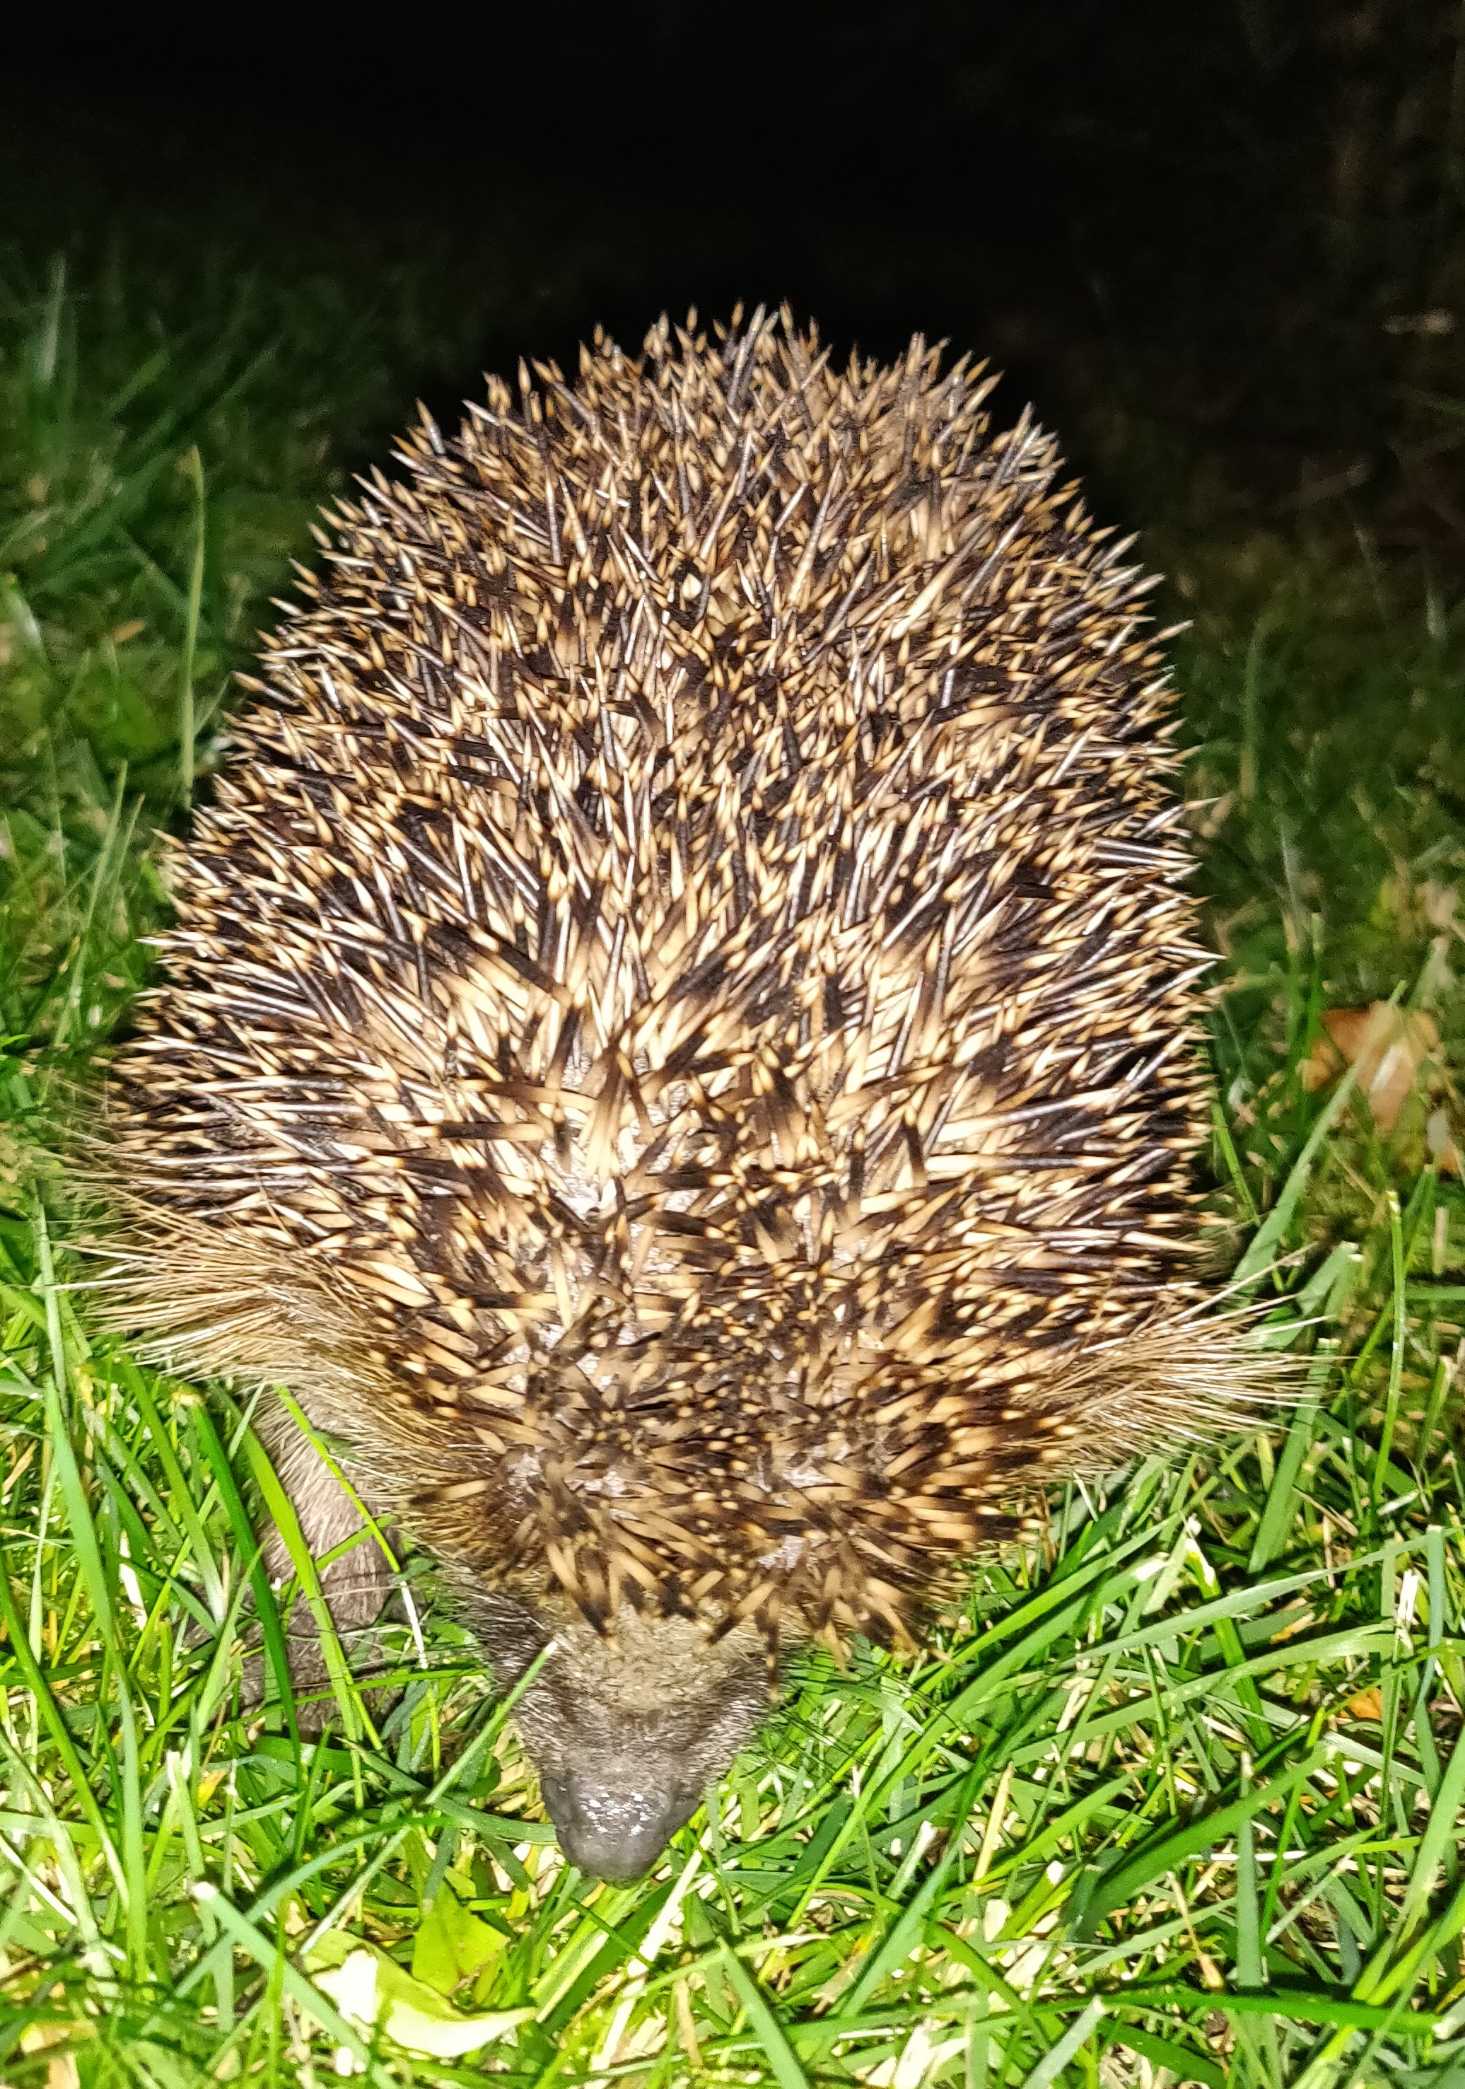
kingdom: Animalia
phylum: Chordata
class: Mammalia
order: Erinaceomorpha
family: Erinaceidae
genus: Erinaceus
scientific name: Erinaceus europaeus
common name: Pindsvin
